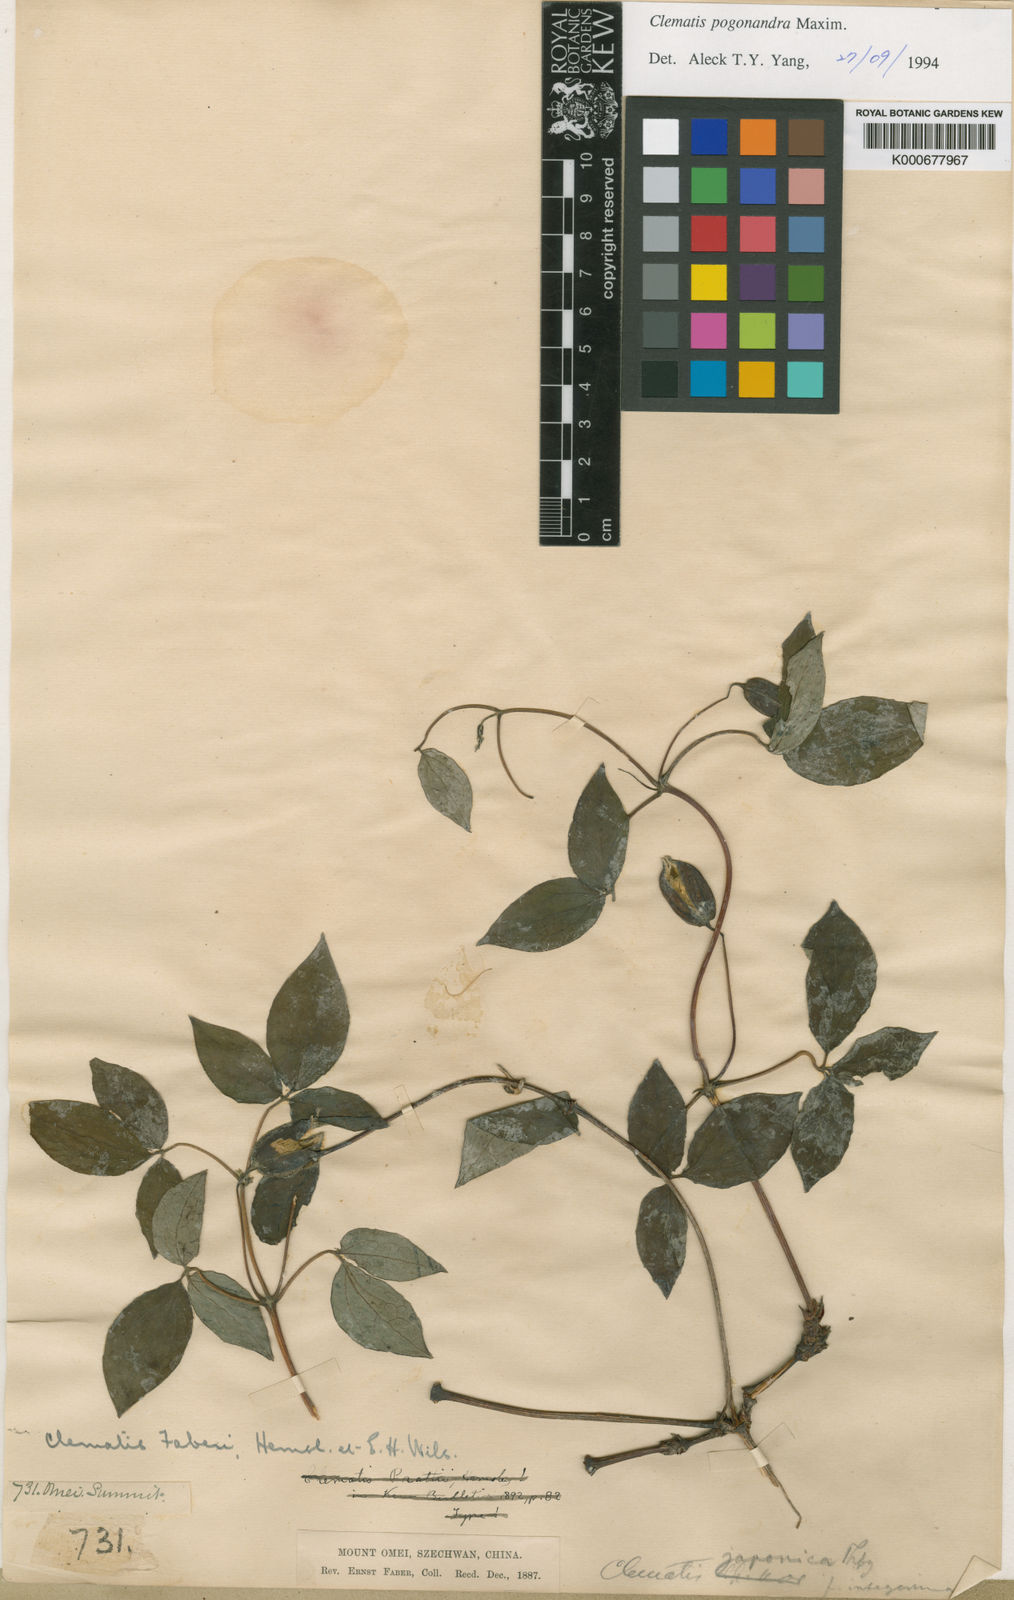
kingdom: Plantae
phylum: Tracheophyta
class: Magnoliopsida
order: Ranunculales
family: Ranunculaceae
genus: Clematis
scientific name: Clematis pogonandra
